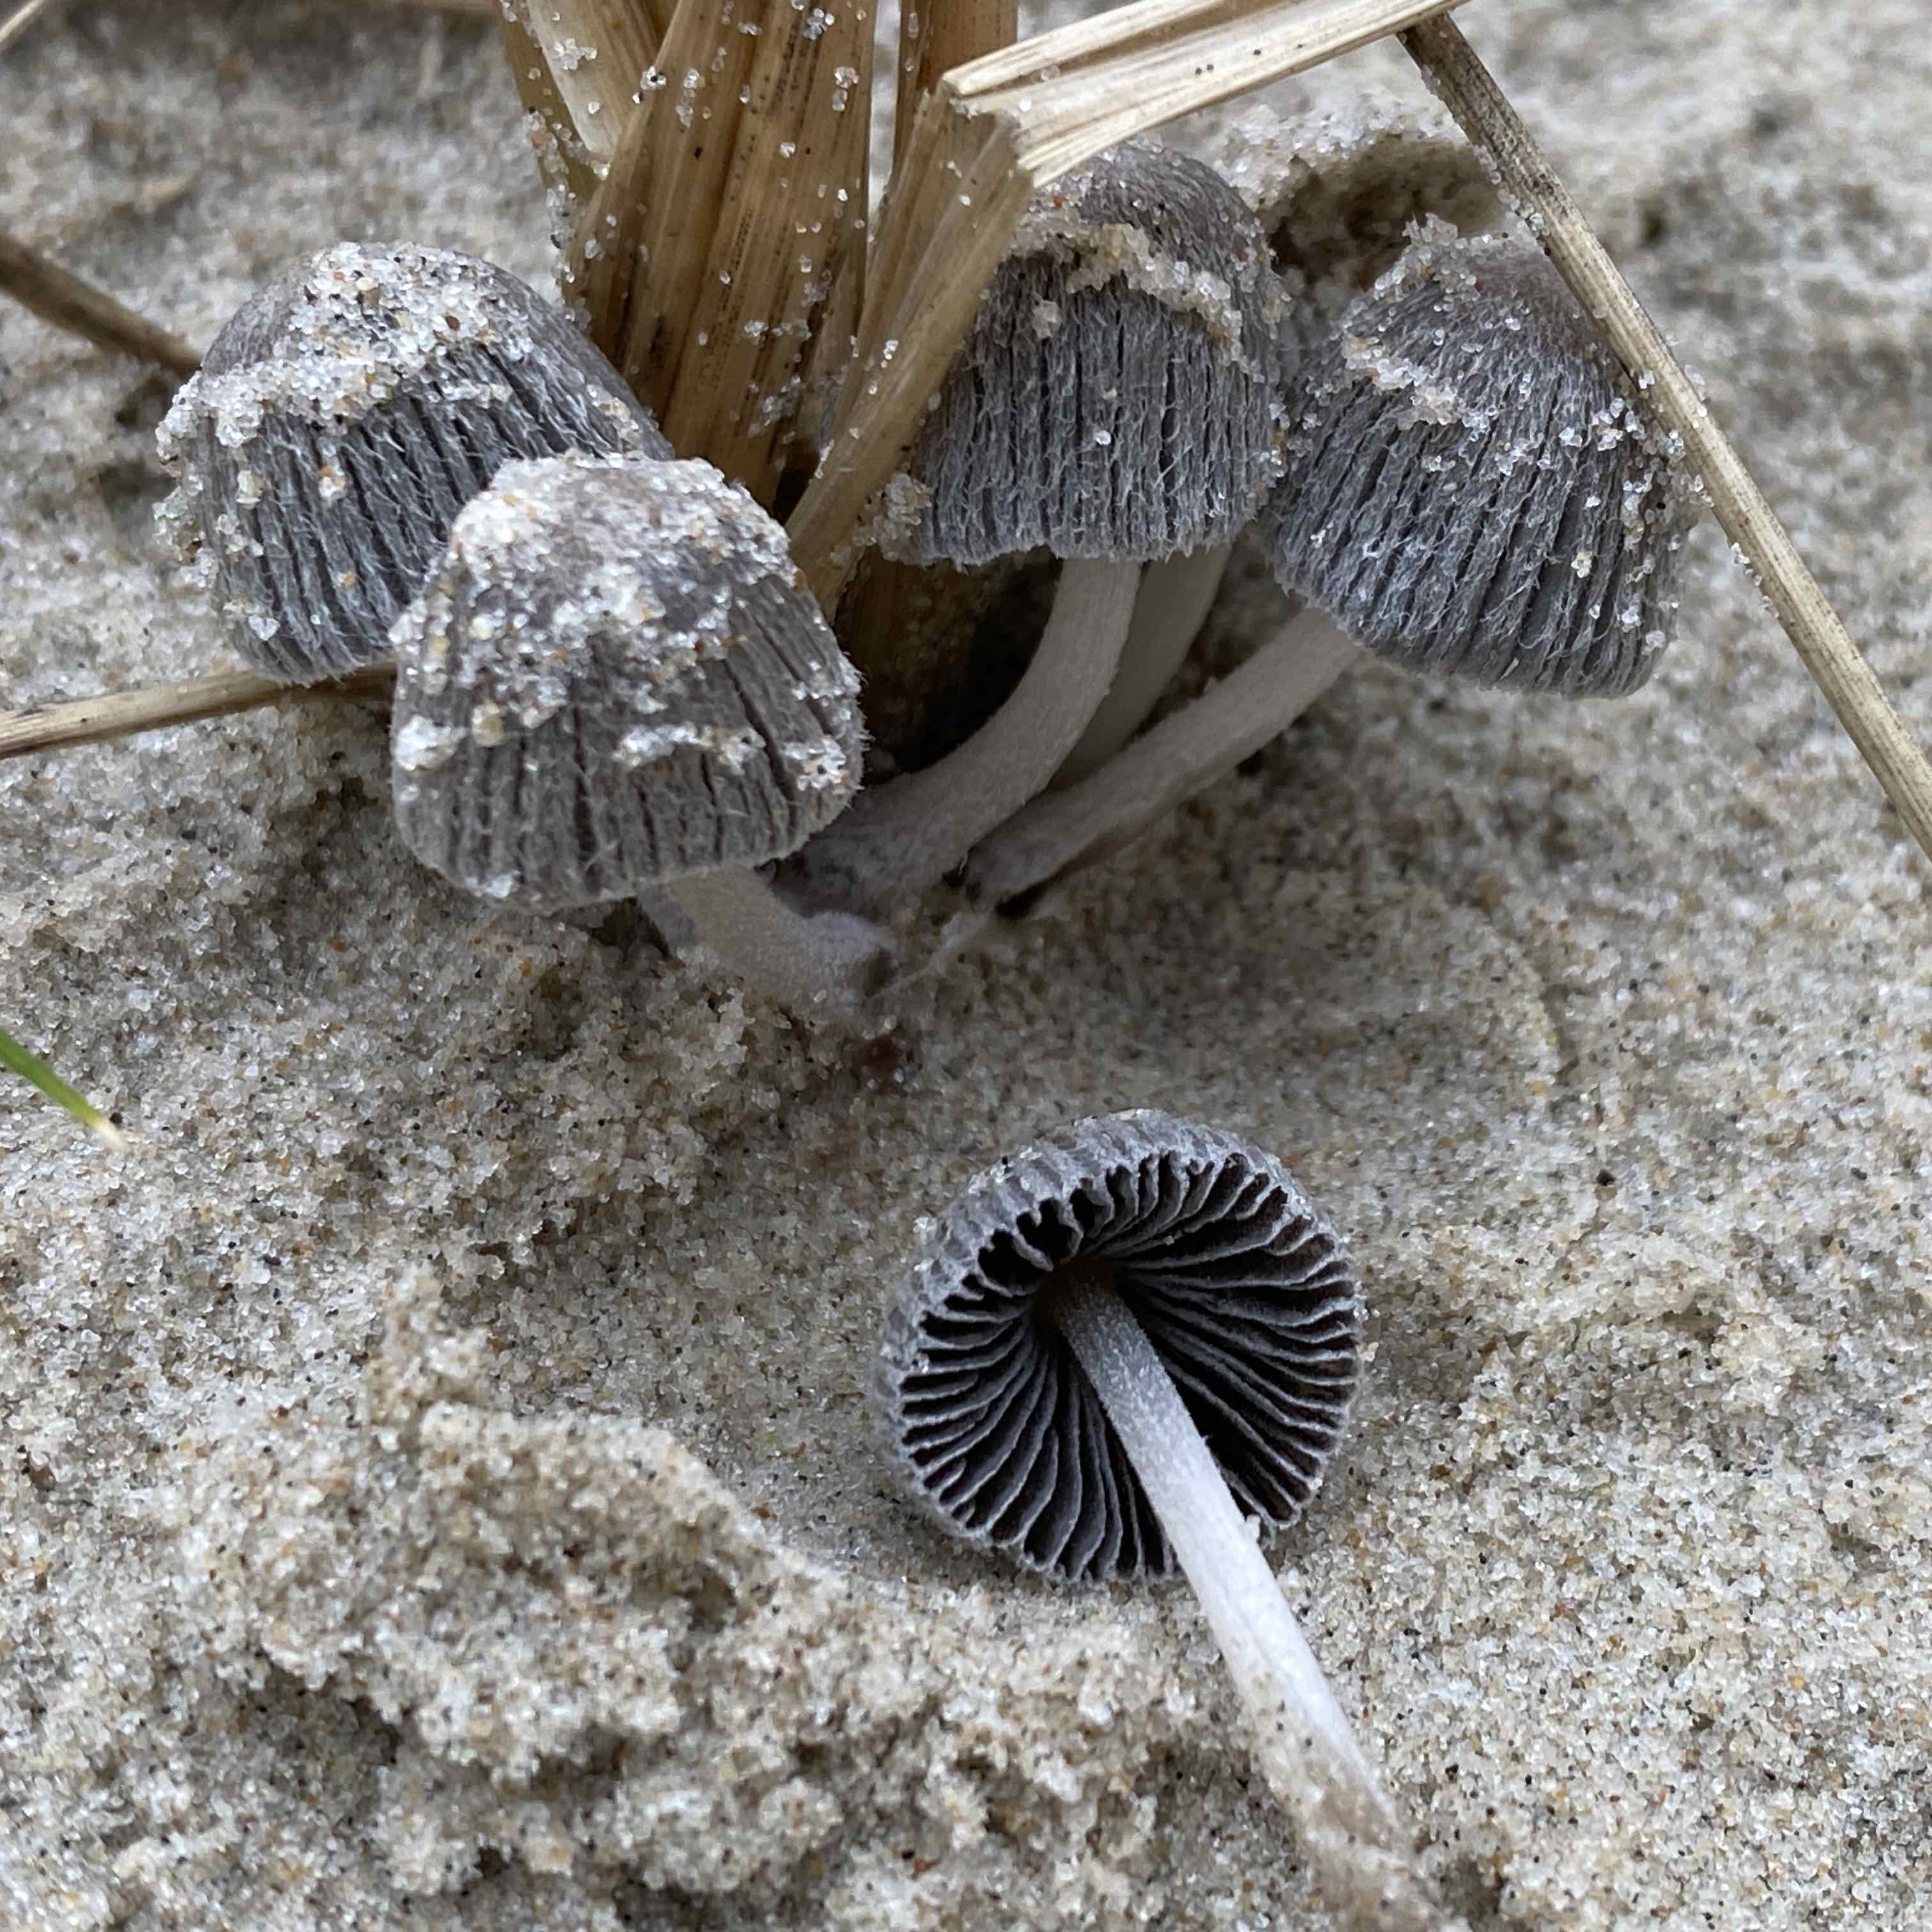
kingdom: Fungi
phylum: Basidiomycota
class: Agaricomycetes
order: Agaricales
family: Psathyrellaceae
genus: Coprinopsis
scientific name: Coprinopsis ammophilae
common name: hjelme-blækhat
